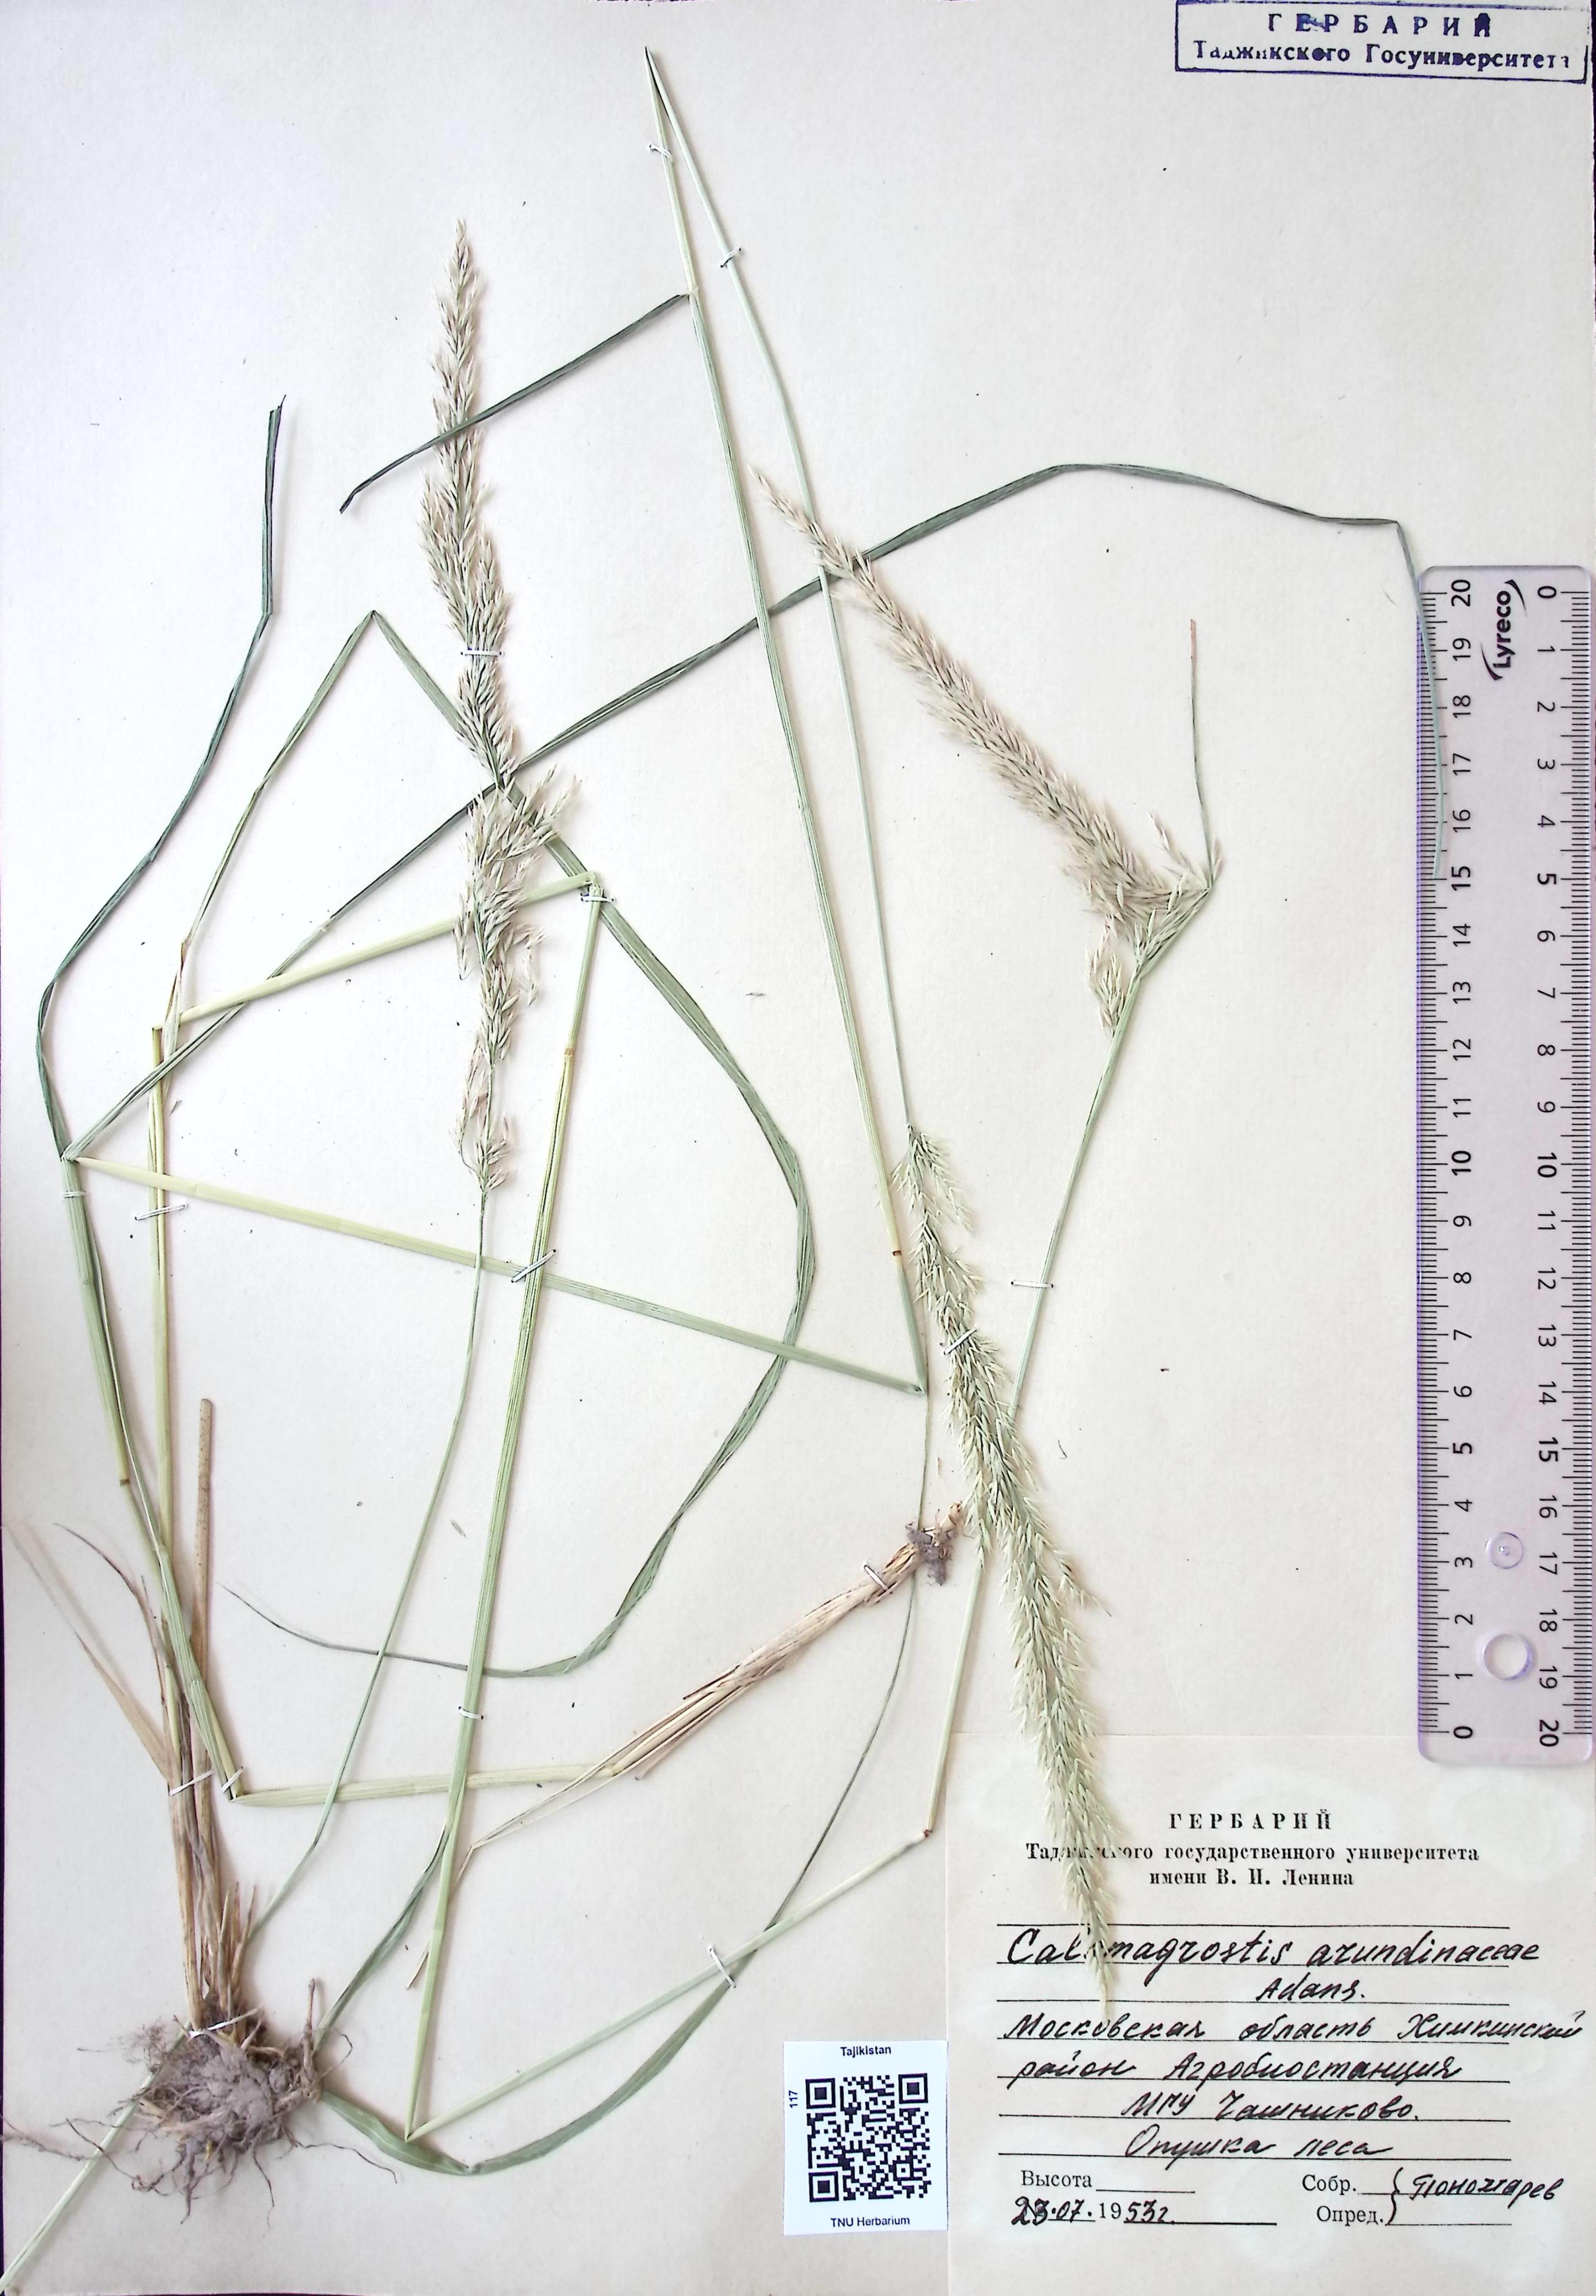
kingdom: Plantae
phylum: Tracheophyta
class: Liliopsida
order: Poales
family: Poaceae
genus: Calamagrostis
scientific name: Calamagrostis arundinacea
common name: Metskastik
